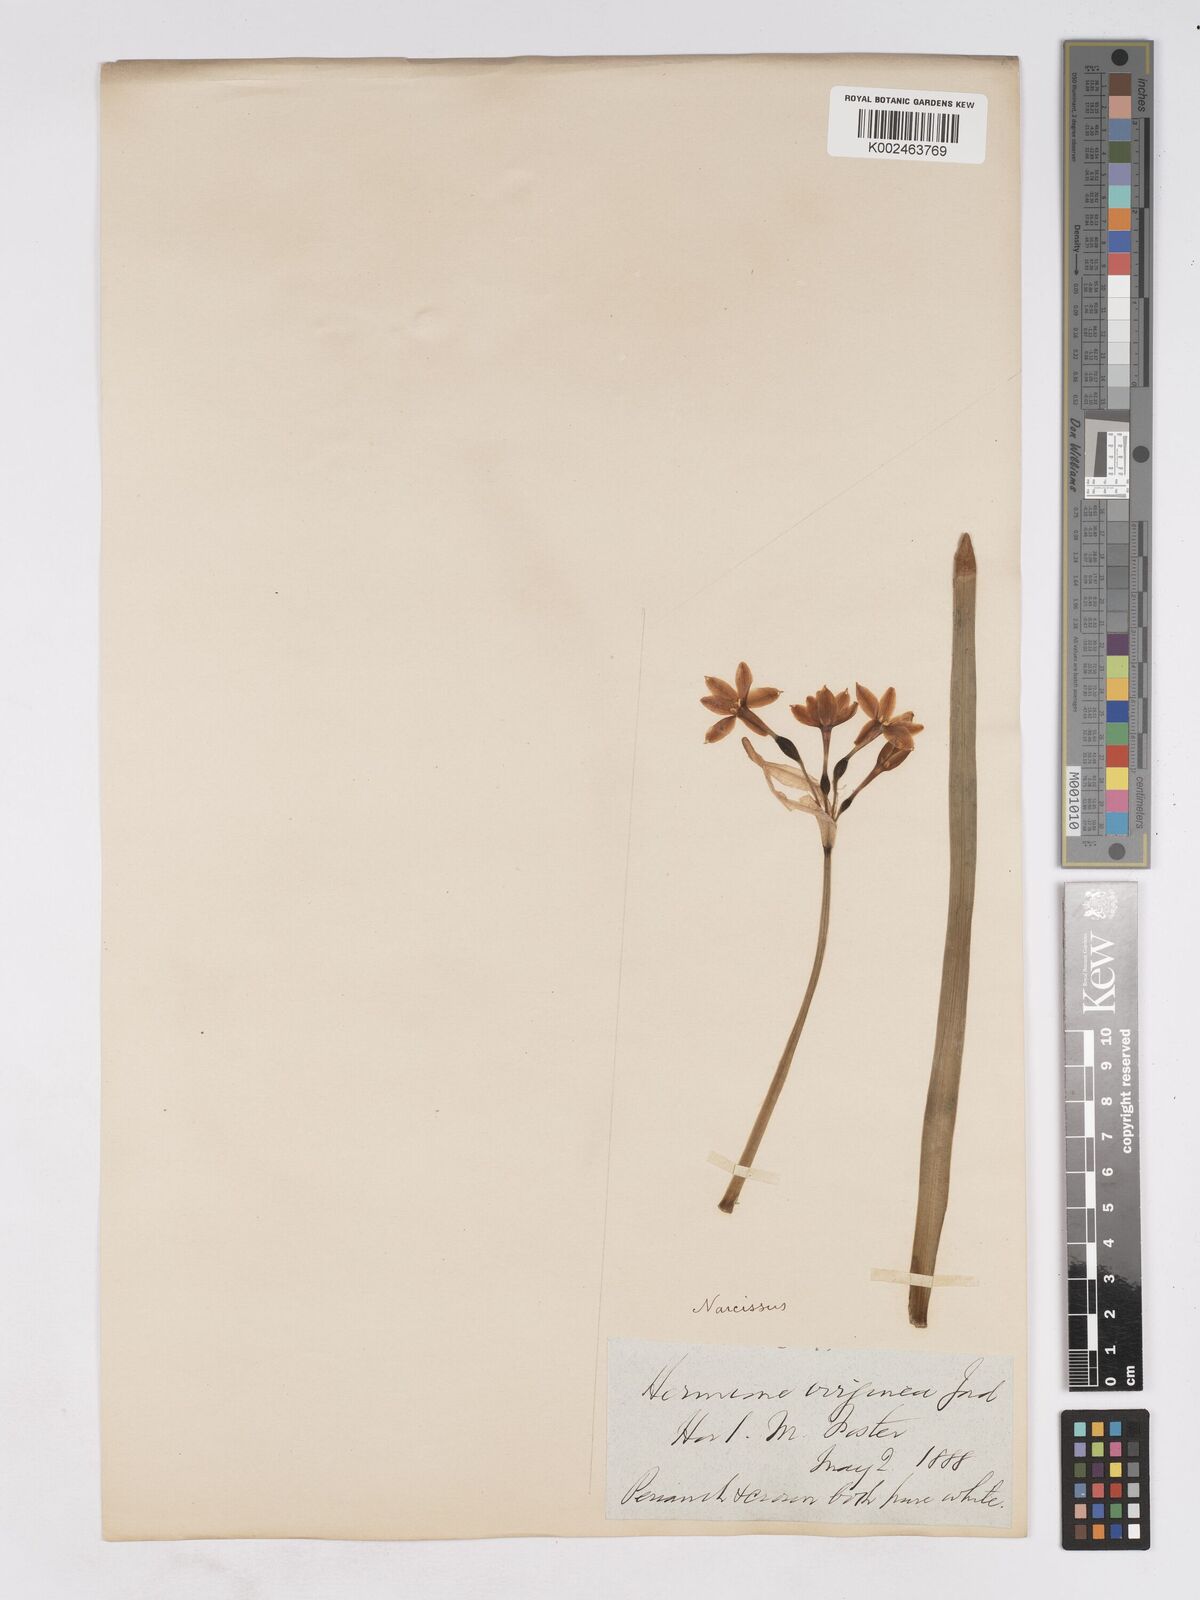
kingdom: Plantae
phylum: Tracheophyta
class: Liliopsida
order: Asparagales
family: Amaryllidaceae
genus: Narcissus
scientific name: Narcissus
